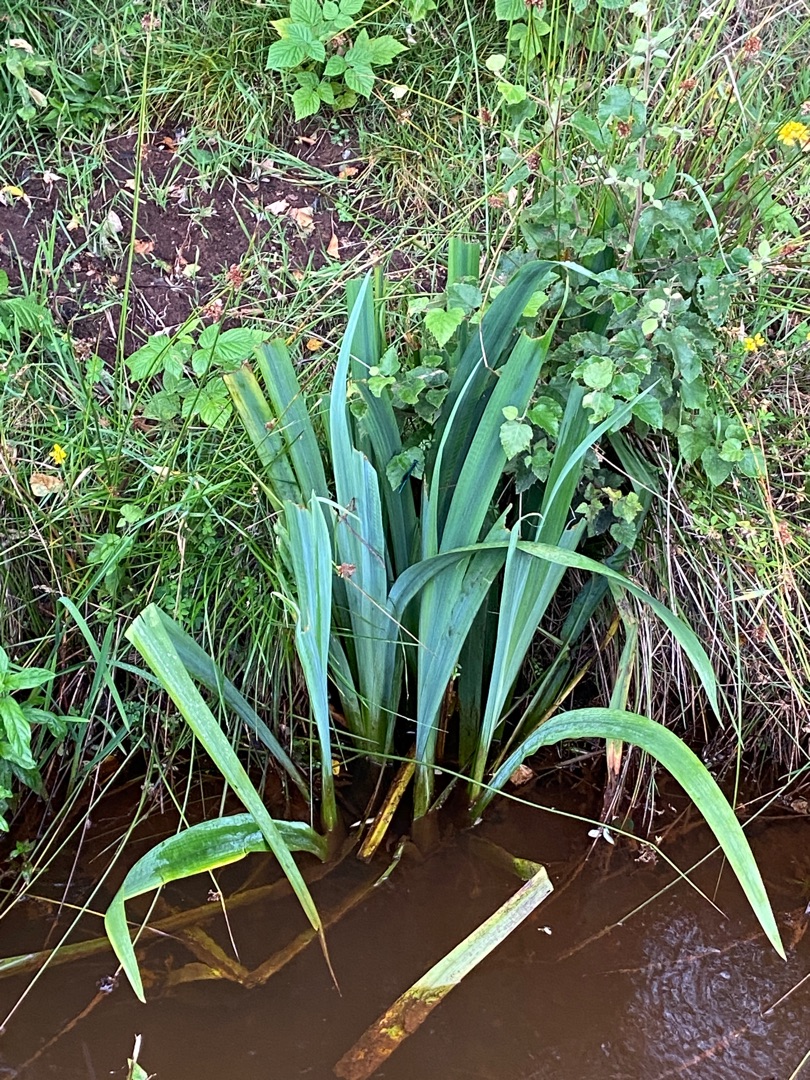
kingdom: Plantae
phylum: Tracheophyta
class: Liliopsida
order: Asparagales
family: Iridaceae
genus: Iris
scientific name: Iris pseudacorus
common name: Gul iris
